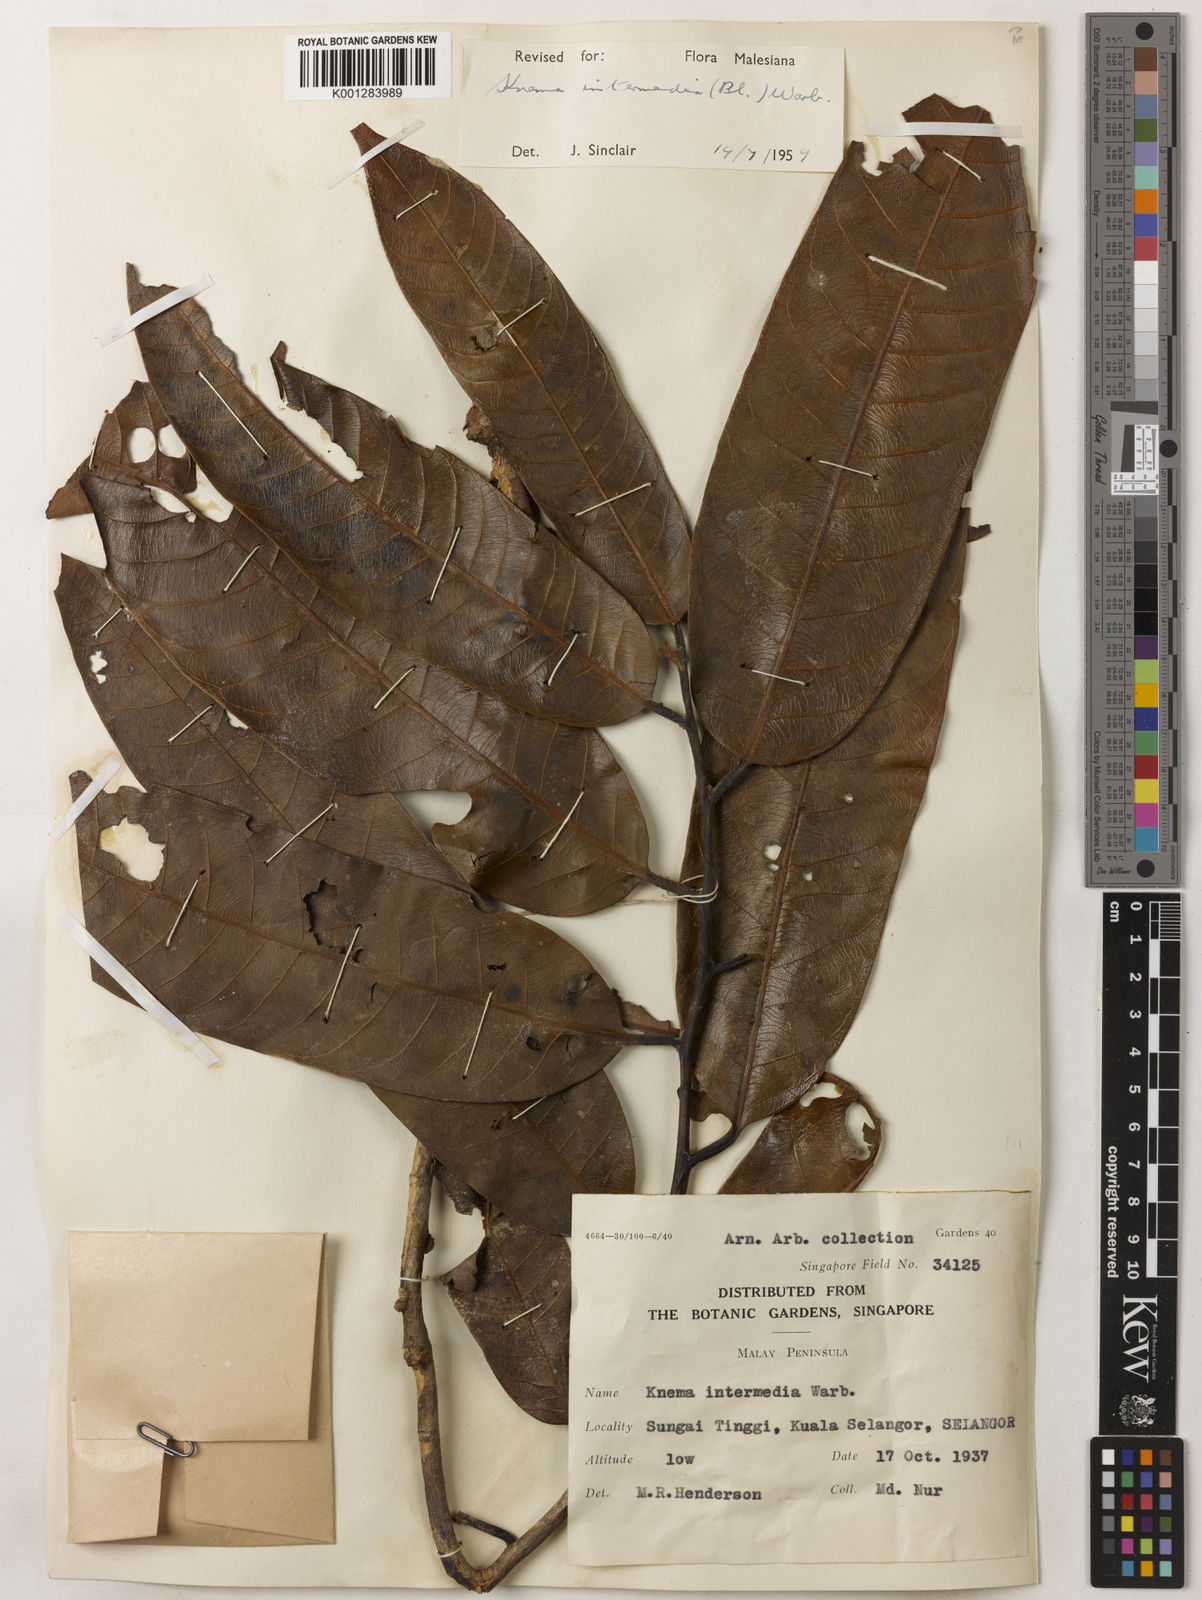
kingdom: Plantae
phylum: Tracheophyta
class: Magnoliopsida
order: Magnoliales
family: Myristicaceae
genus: Knema
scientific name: Knema intermedia
